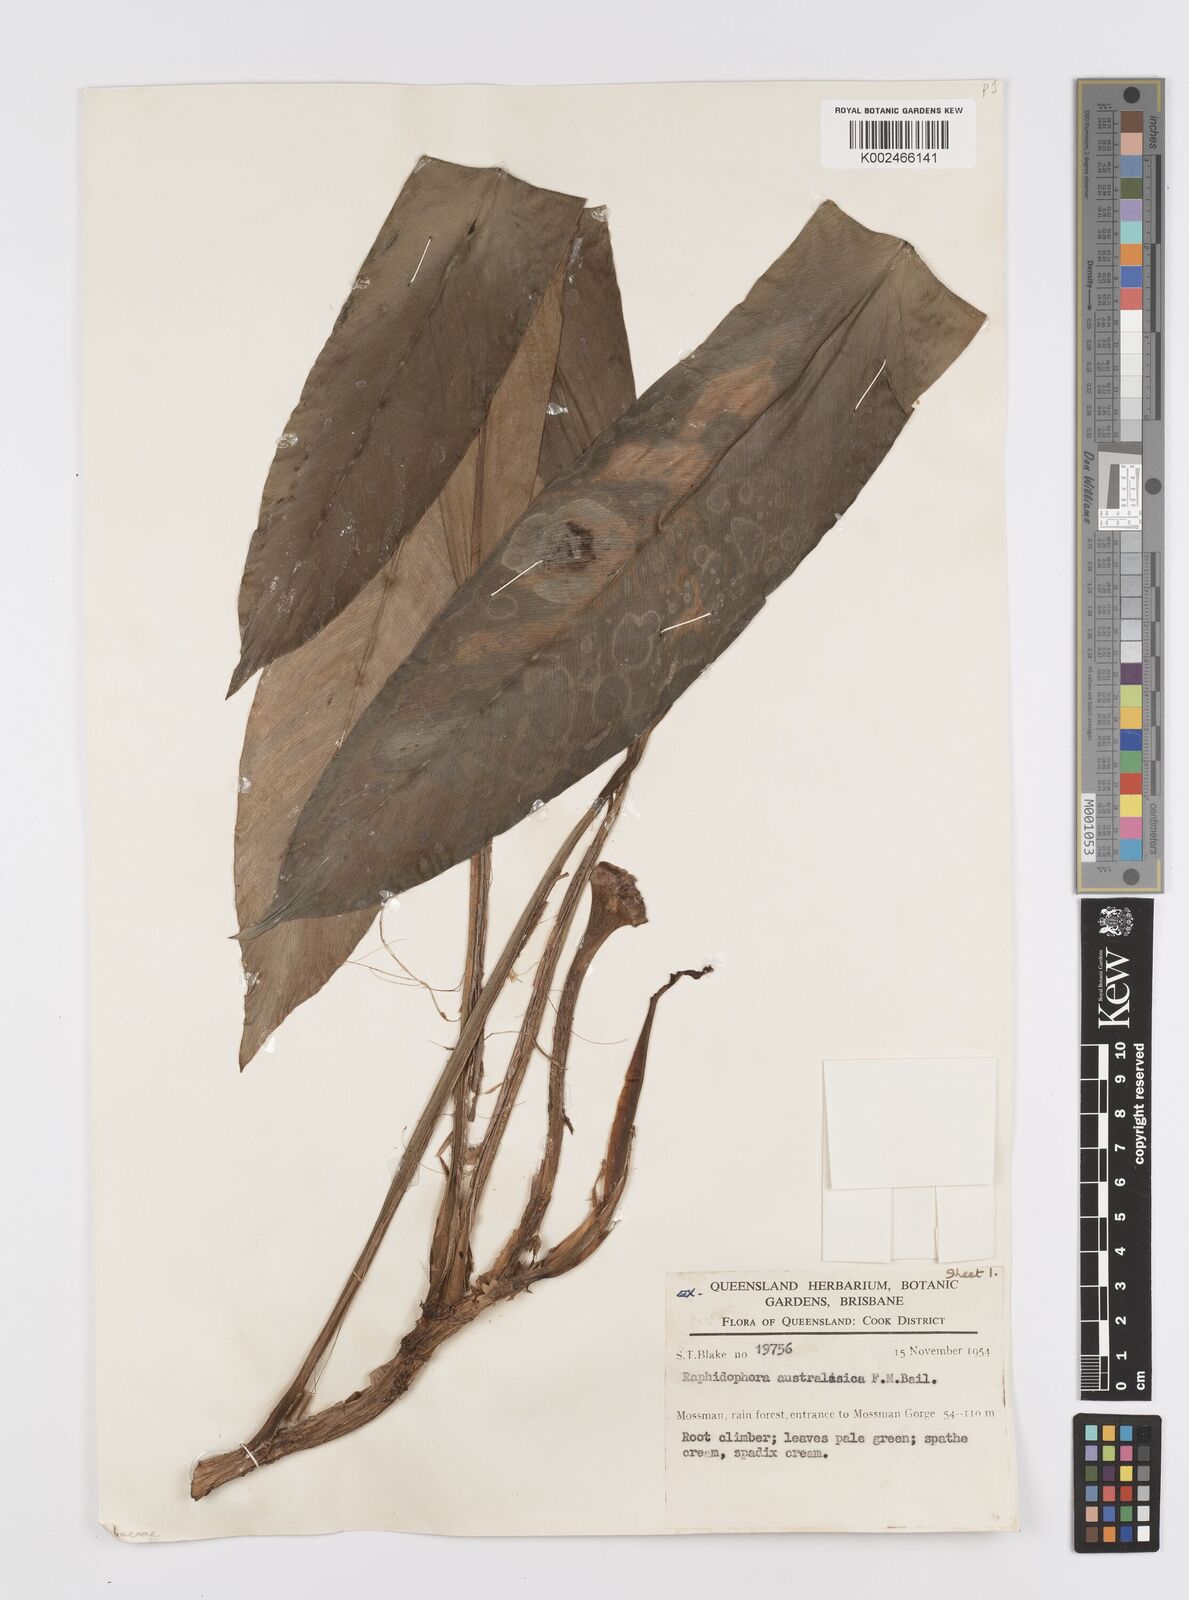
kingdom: Plantae
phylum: Tracheophyta
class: Liliopsida
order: Alismatales
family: Araceae
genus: Rhaphidophora
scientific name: Rhaphidophora australasica
